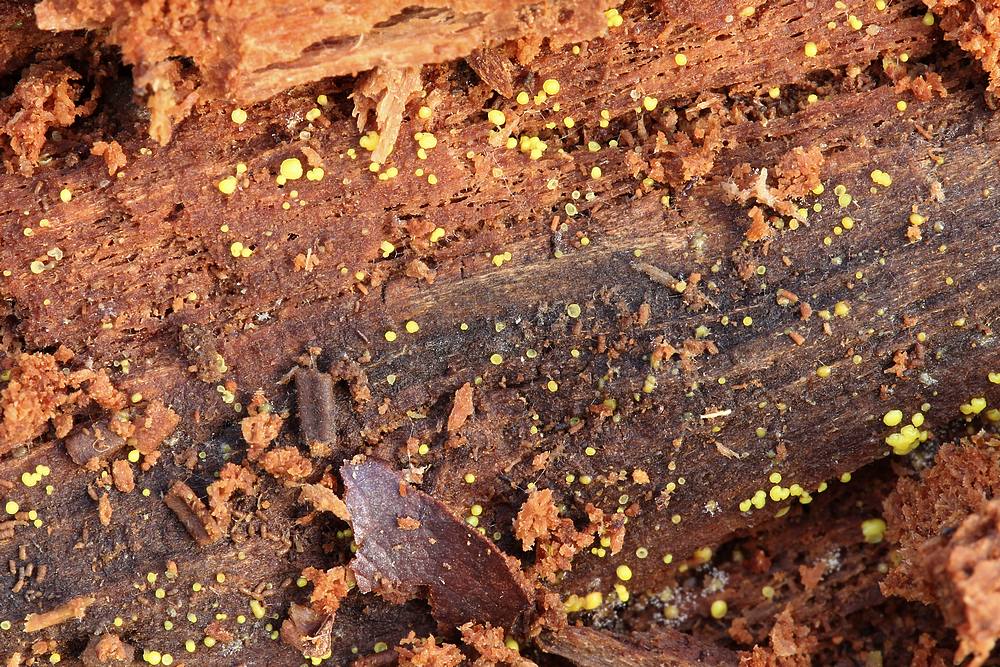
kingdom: Fungi
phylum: Ascomycota
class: Leotiomycetes
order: Helotiales
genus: Lemalis
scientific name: Lemalis aurea
